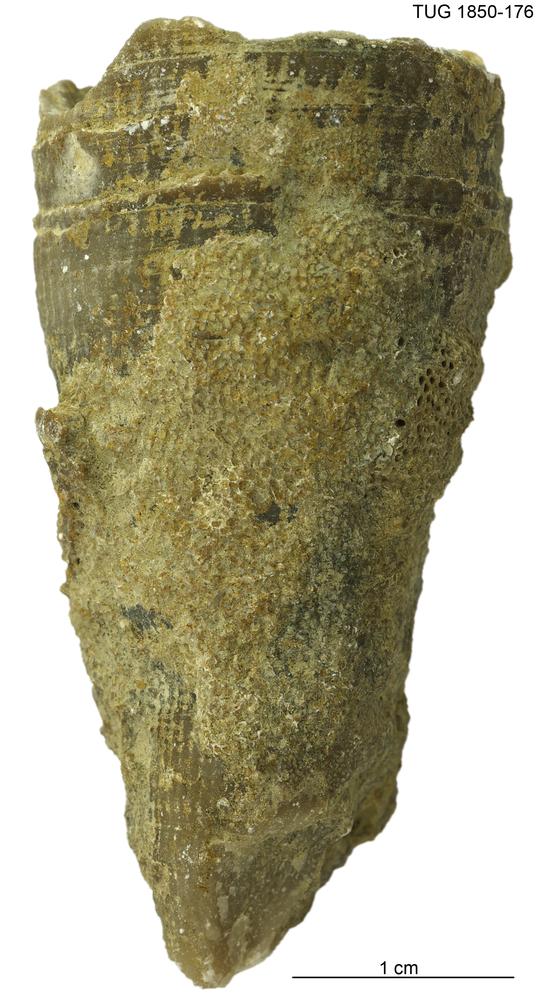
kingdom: Animalia
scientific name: Animalia
